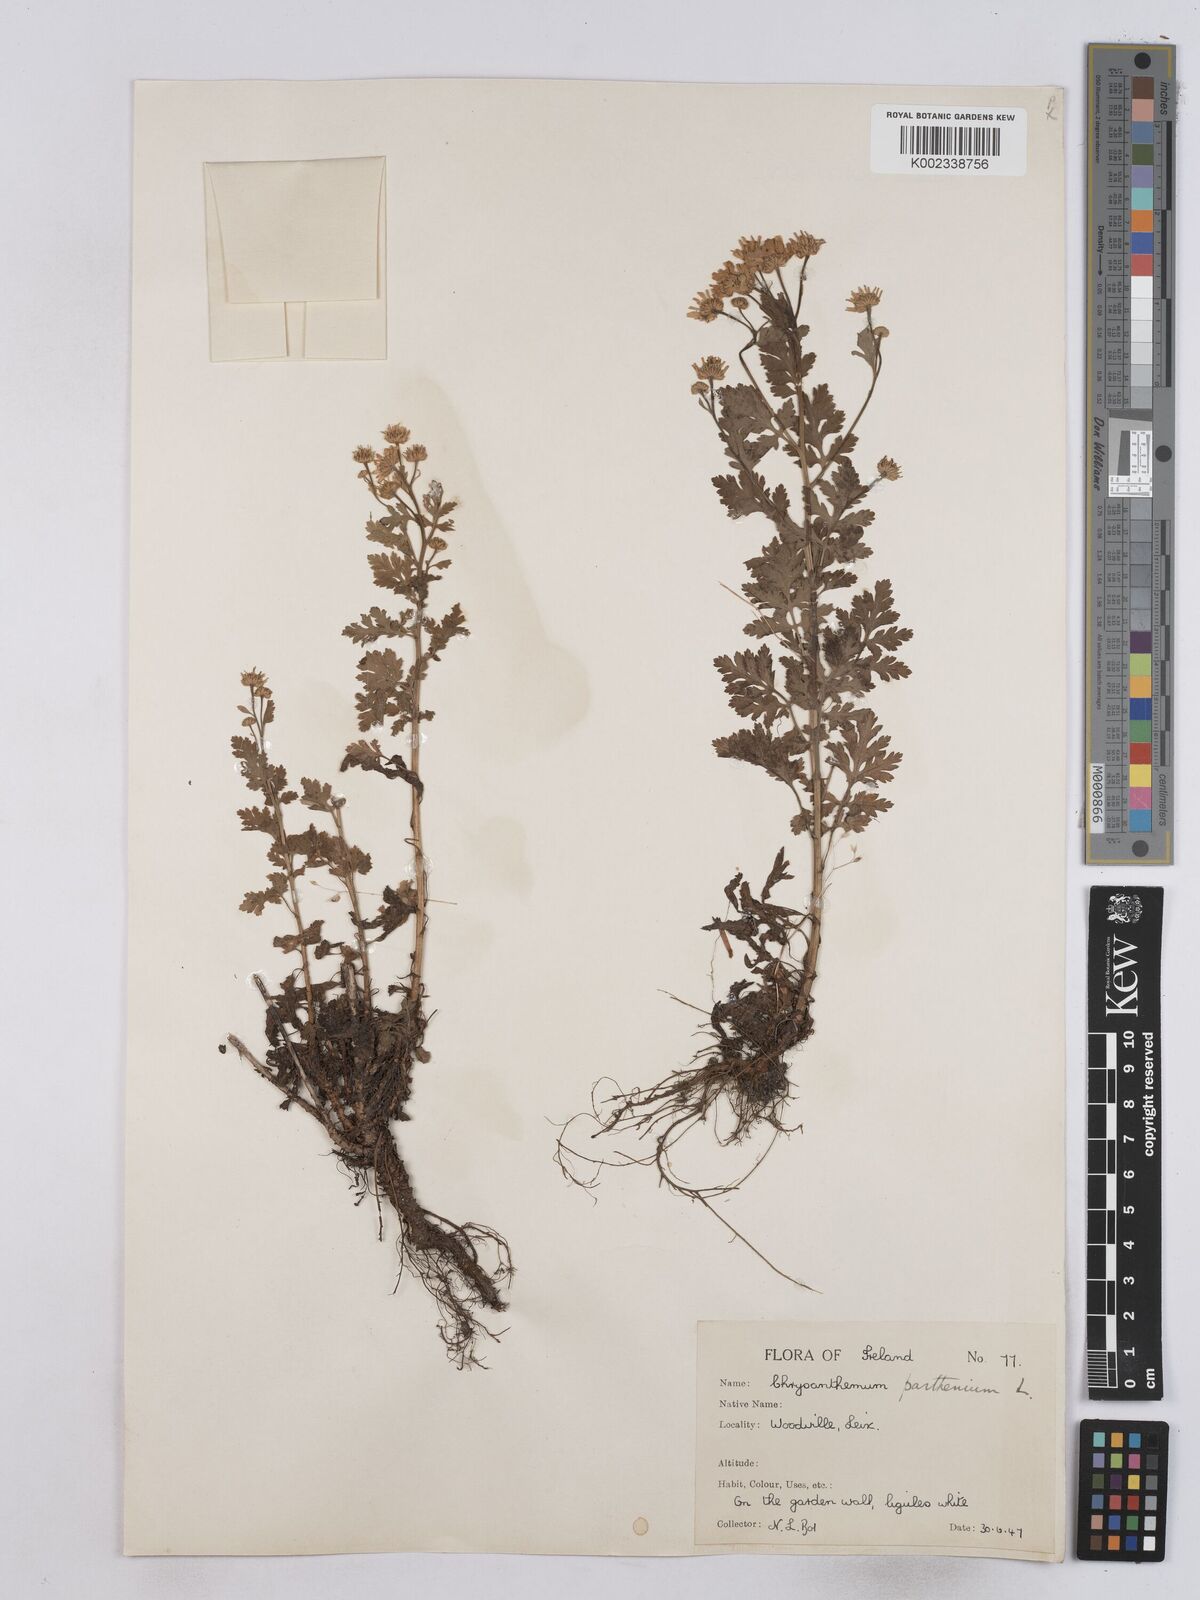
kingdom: Plantae
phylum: Tracheophyta
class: Magnoliopsida
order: Asterales
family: Asteraceae
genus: Tanacetum
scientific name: Tanacetum parthenium
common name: Feverfew
